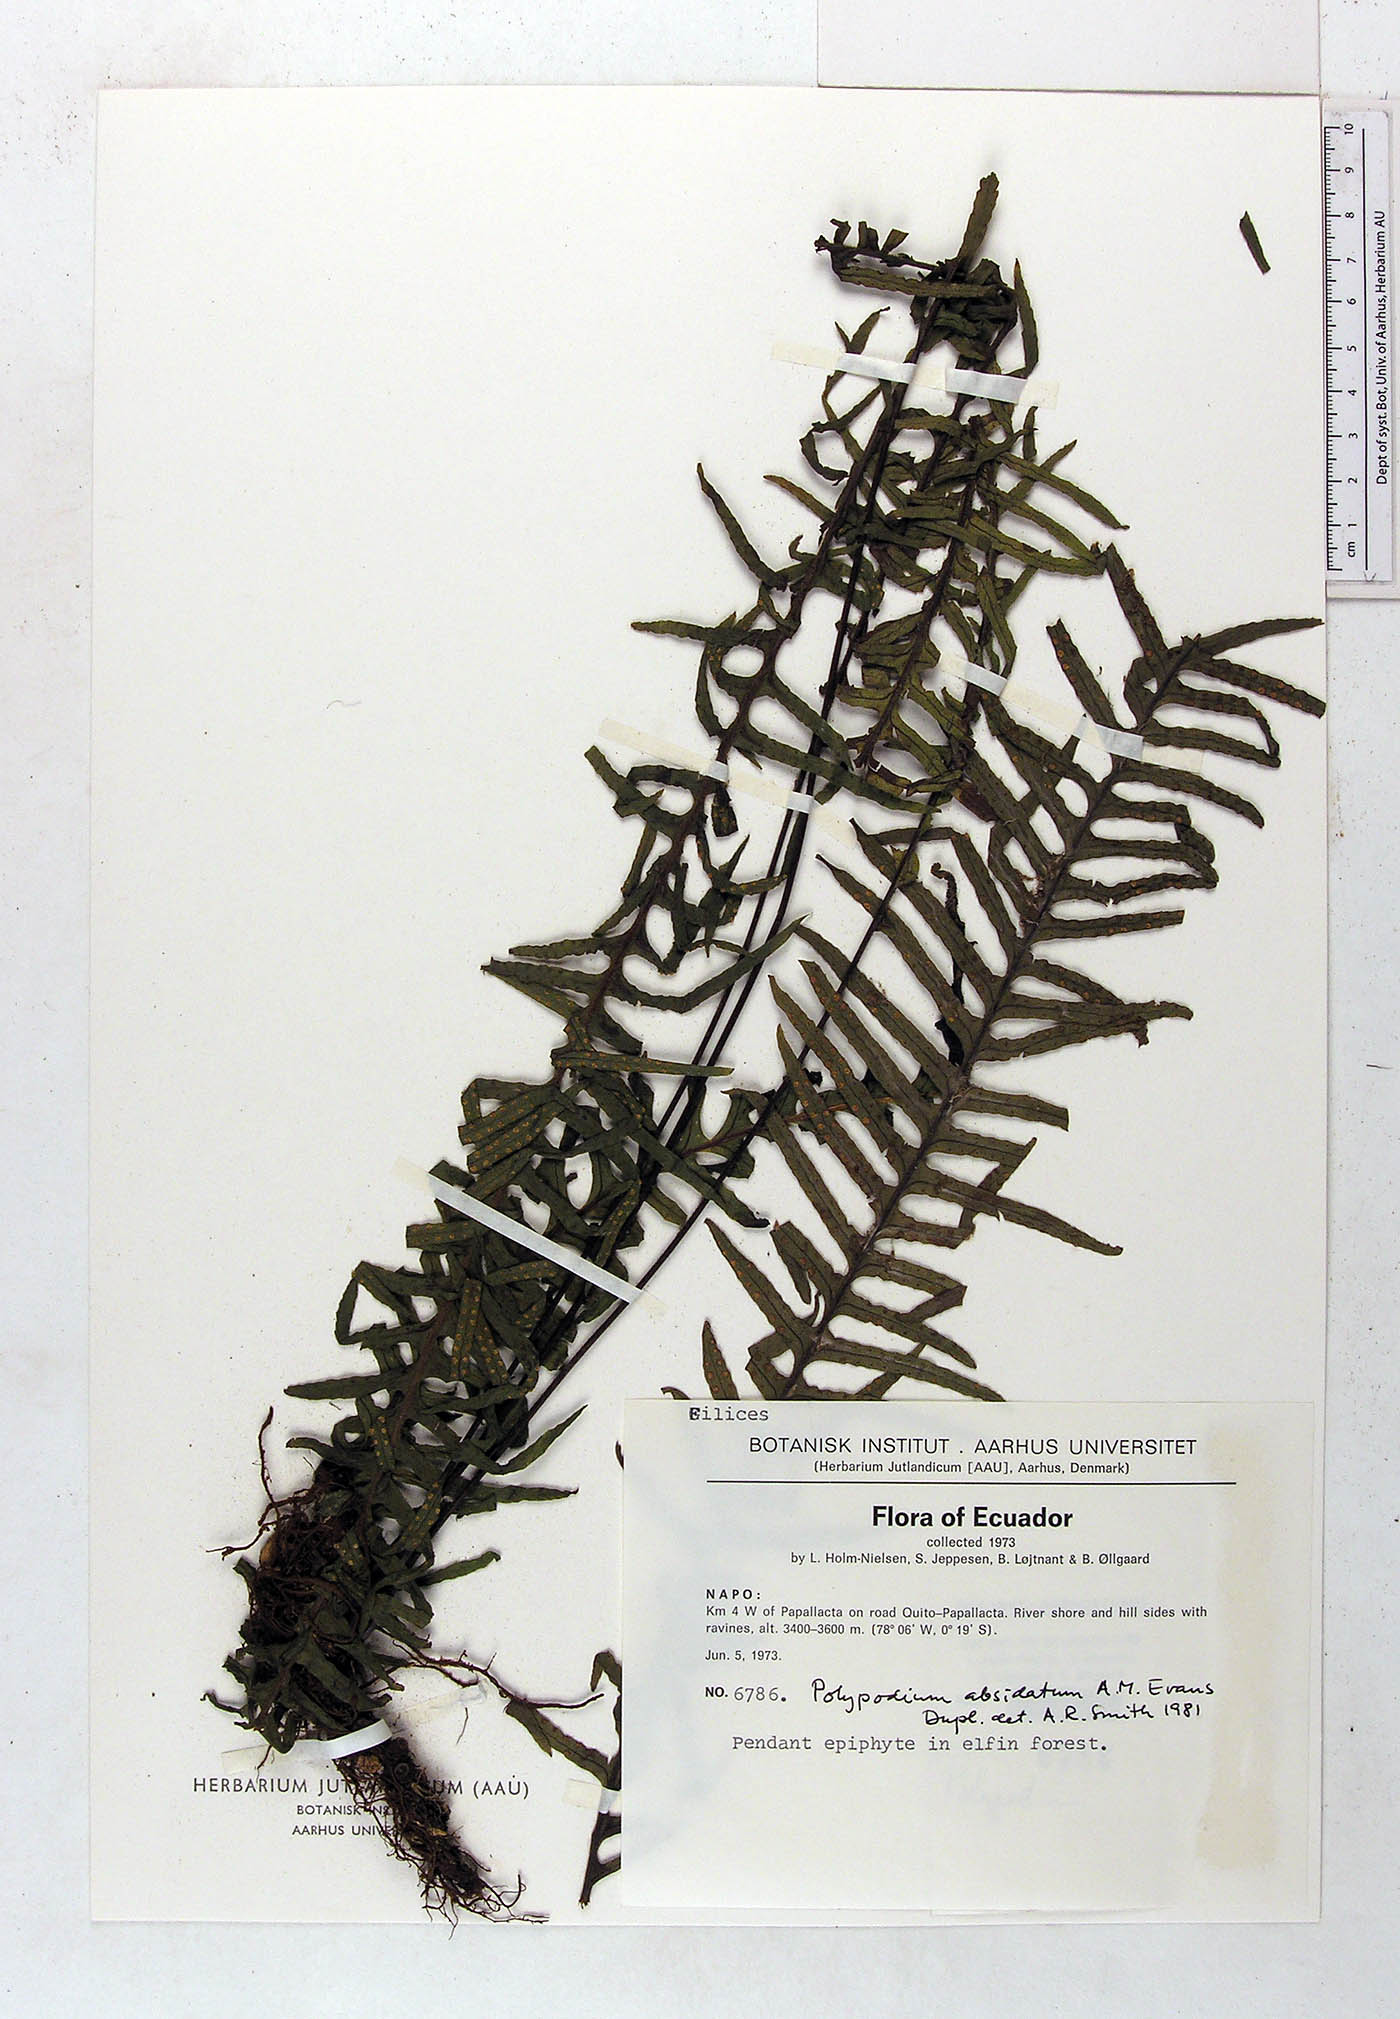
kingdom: Plantae
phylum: Tracheophyta
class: Polypodiopsida
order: Polypodiales
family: Polypodiaceae
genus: Pecluma
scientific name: Pecluma absidata
